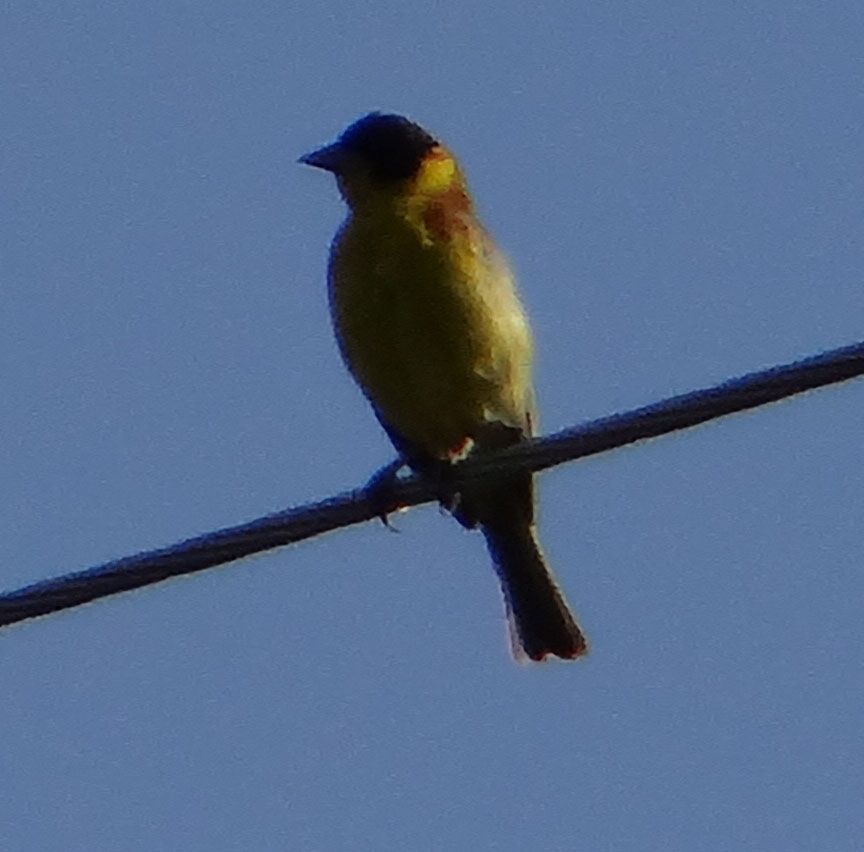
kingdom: Animalia
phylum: Chordata
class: Aves
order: Passeriformes
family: Emberizidae
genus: Emberiza
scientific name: Emberiza melanocephala
